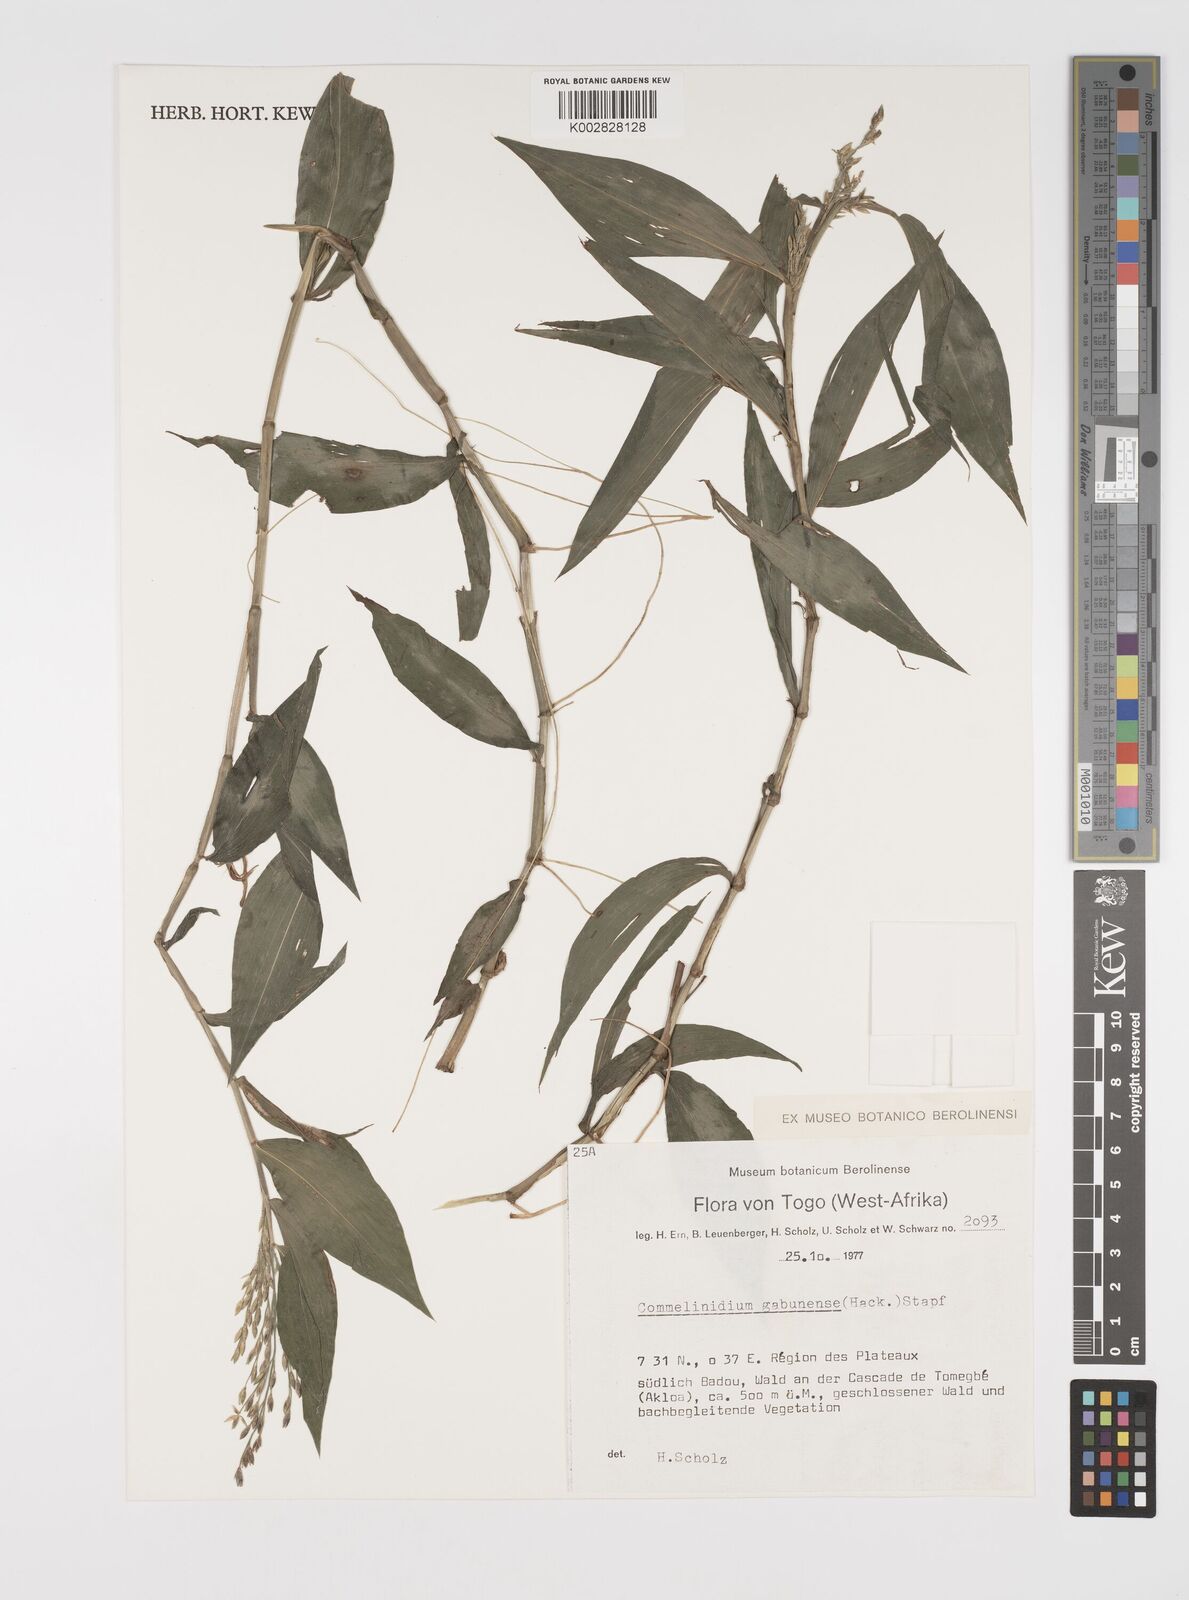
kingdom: Plantae
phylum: Tracheophyta
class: Liliopsida
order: Poales
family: Poaceae
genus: Acroceras
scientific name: Acroceras gabunense
